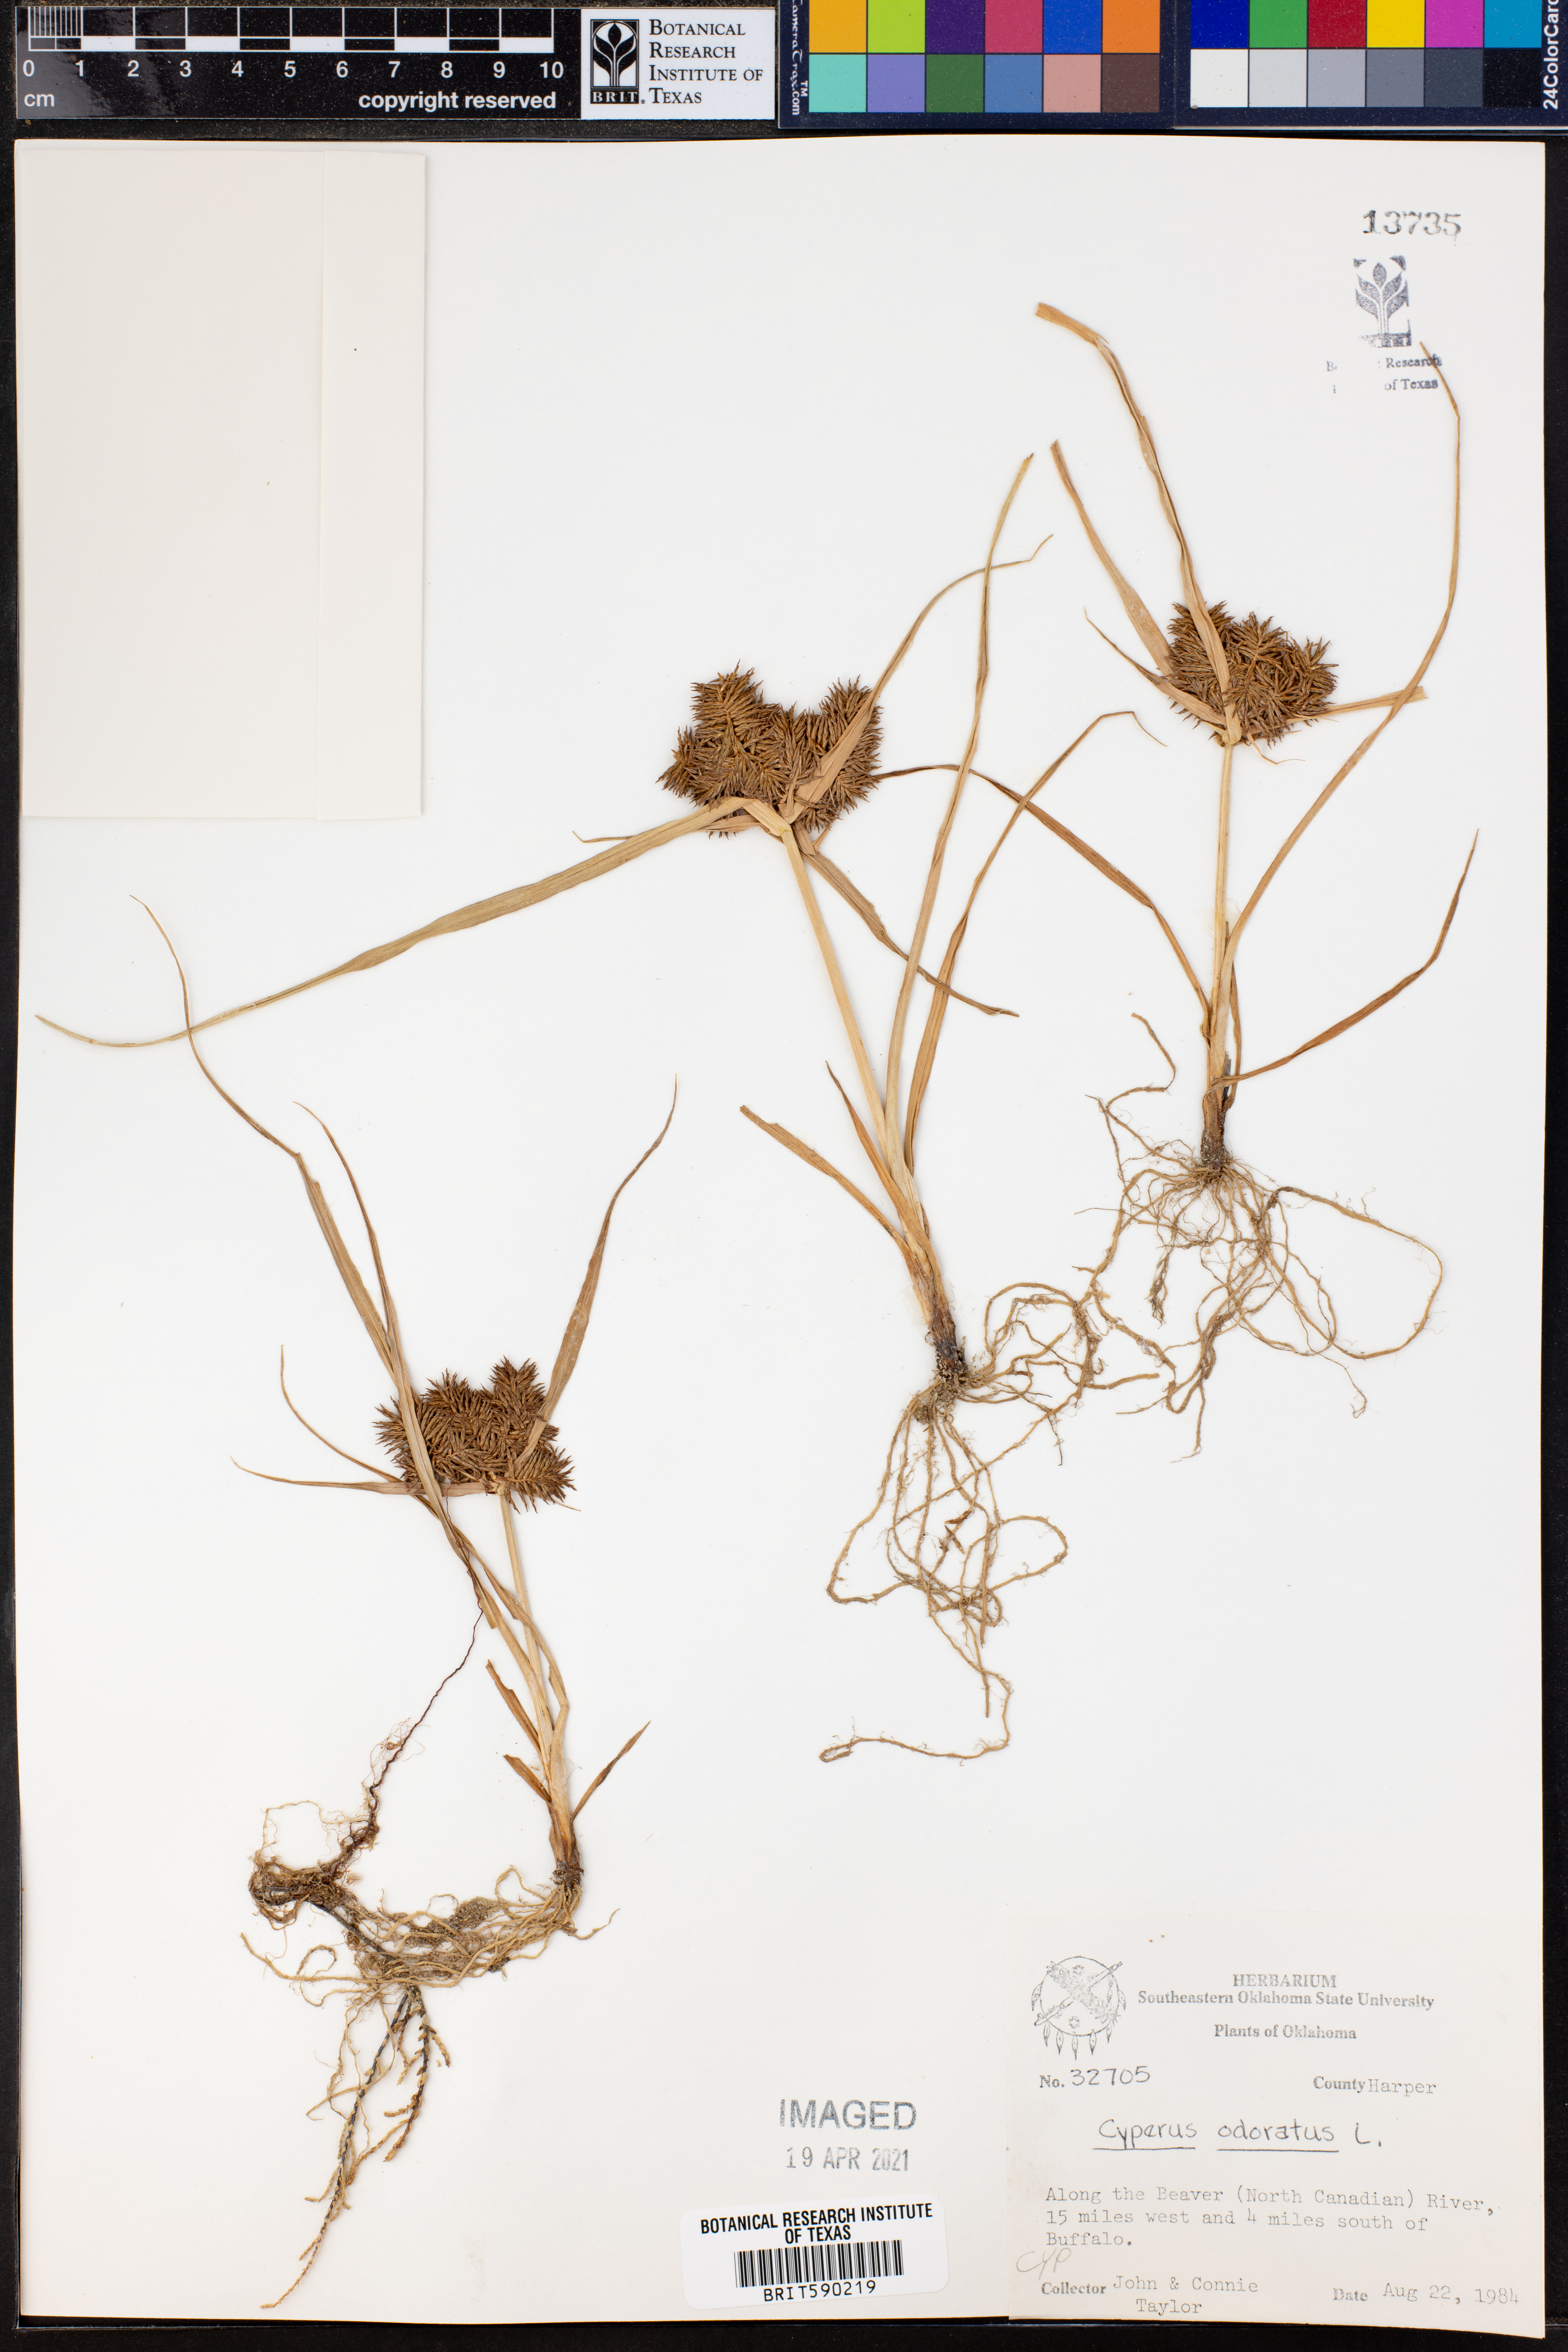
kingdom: Plantae
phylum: Tracheophyta
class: Liliopsida
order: Poales
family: Cyperaceae
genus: Cyperus
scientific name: Cyperus odoratus
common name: Fragrant flatsedge
